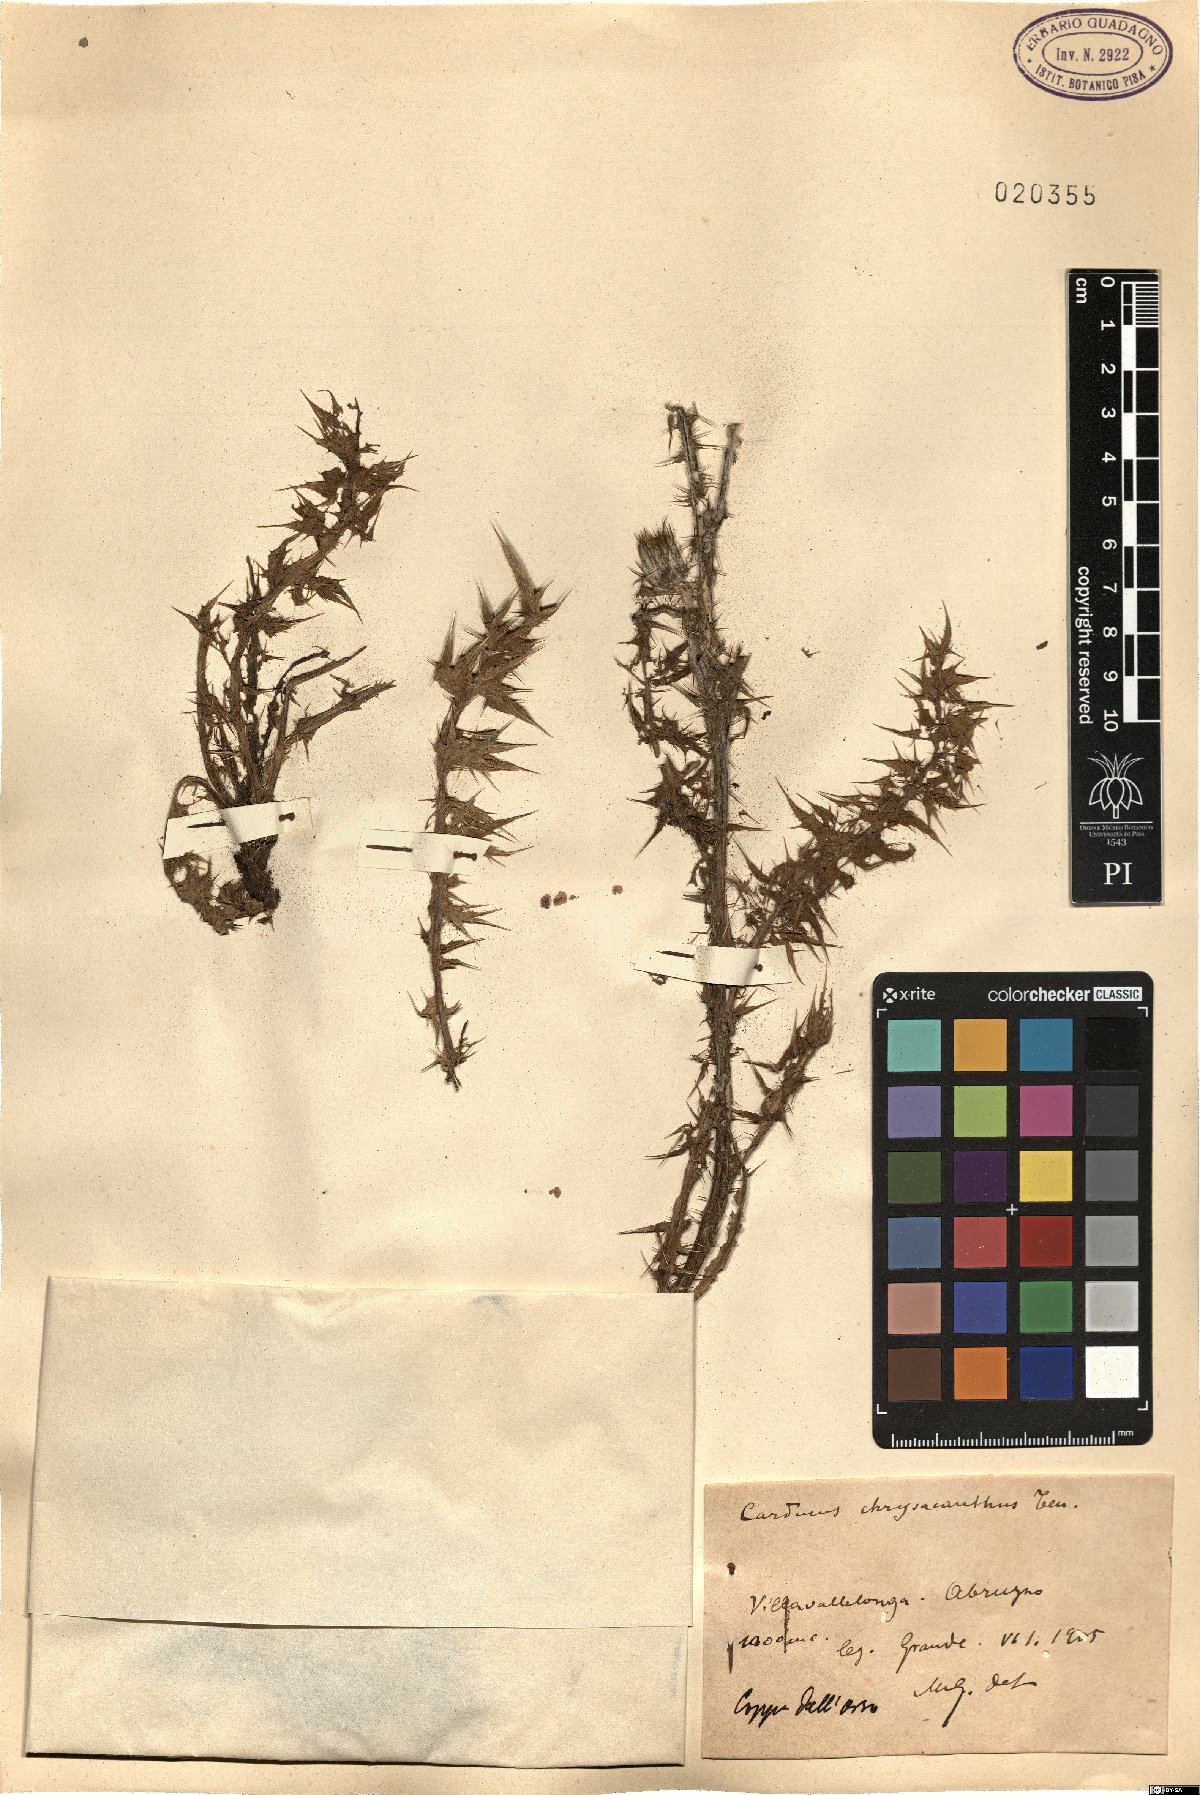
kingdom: Plantae
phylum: Tracheophyta
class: Magnoliopsida
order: Asterales
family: Asteraceae
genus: Carduus
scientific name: Carduus chrysacanthus
